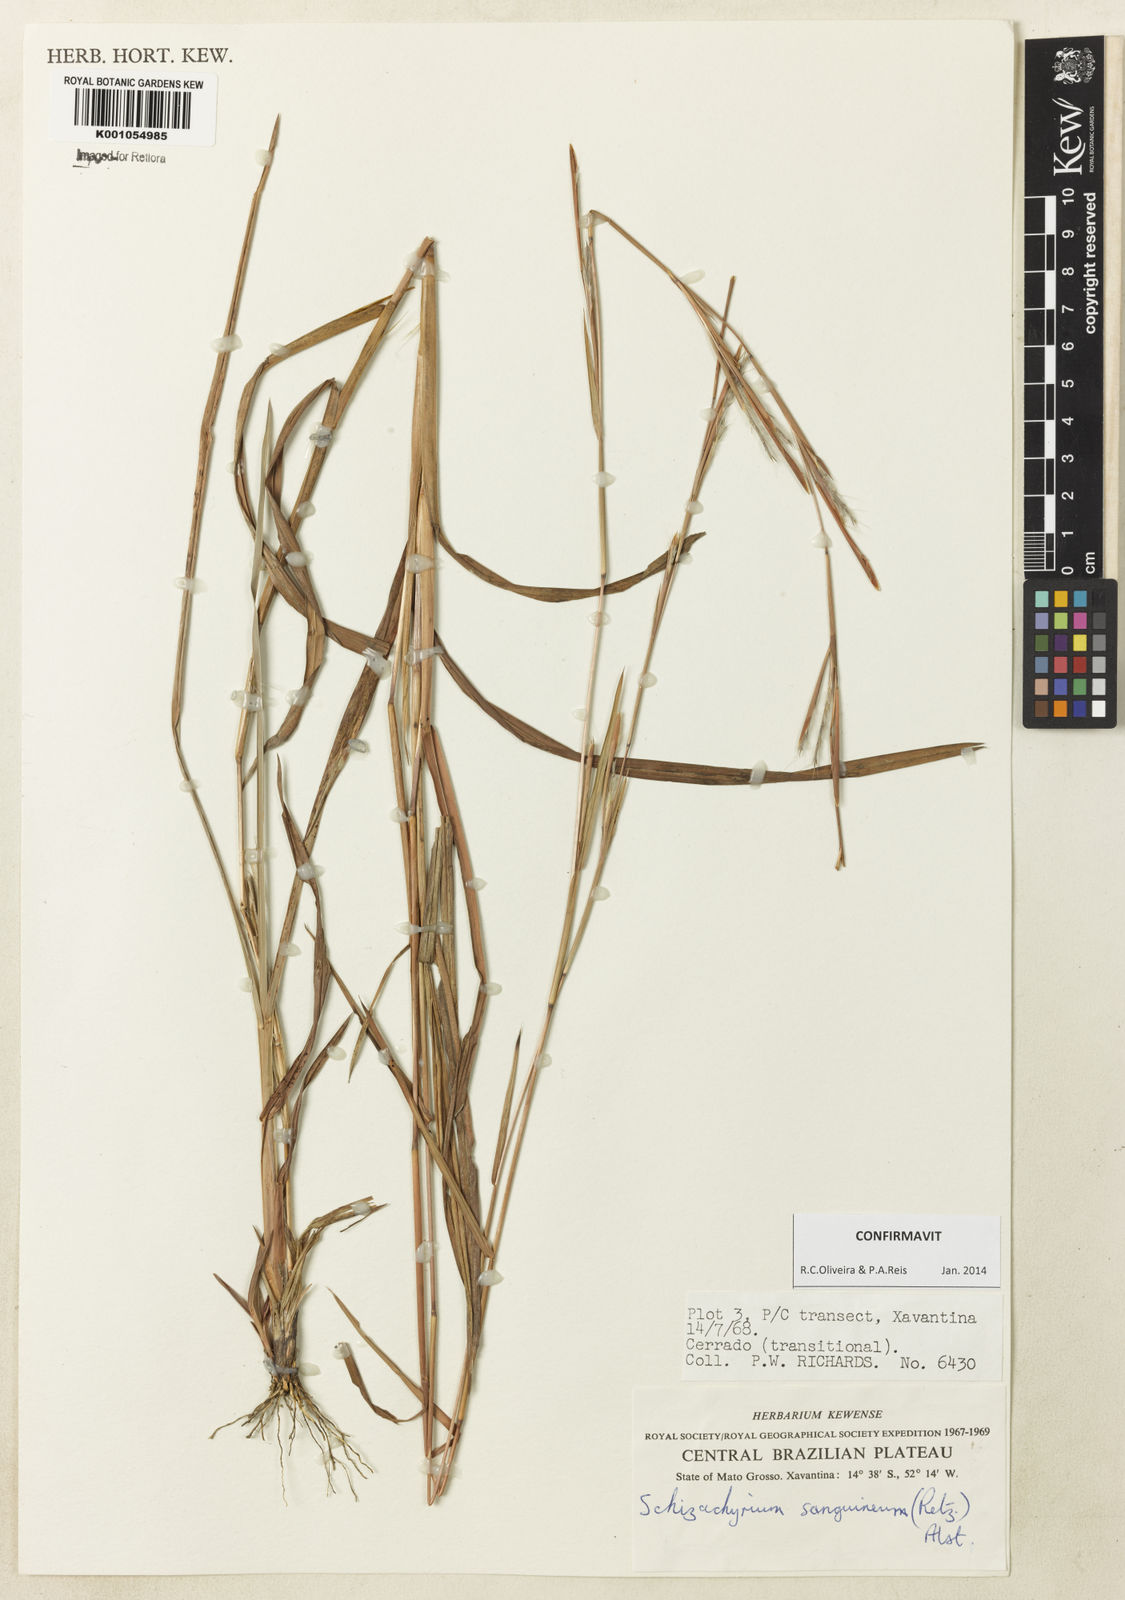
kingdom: Plantae
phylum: Tracheophyta
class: Liliopsida
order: Poales
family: Poaceae
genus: Schizachyrium
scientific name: Schizachyrium sanguineum
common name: Crimson bluestem
